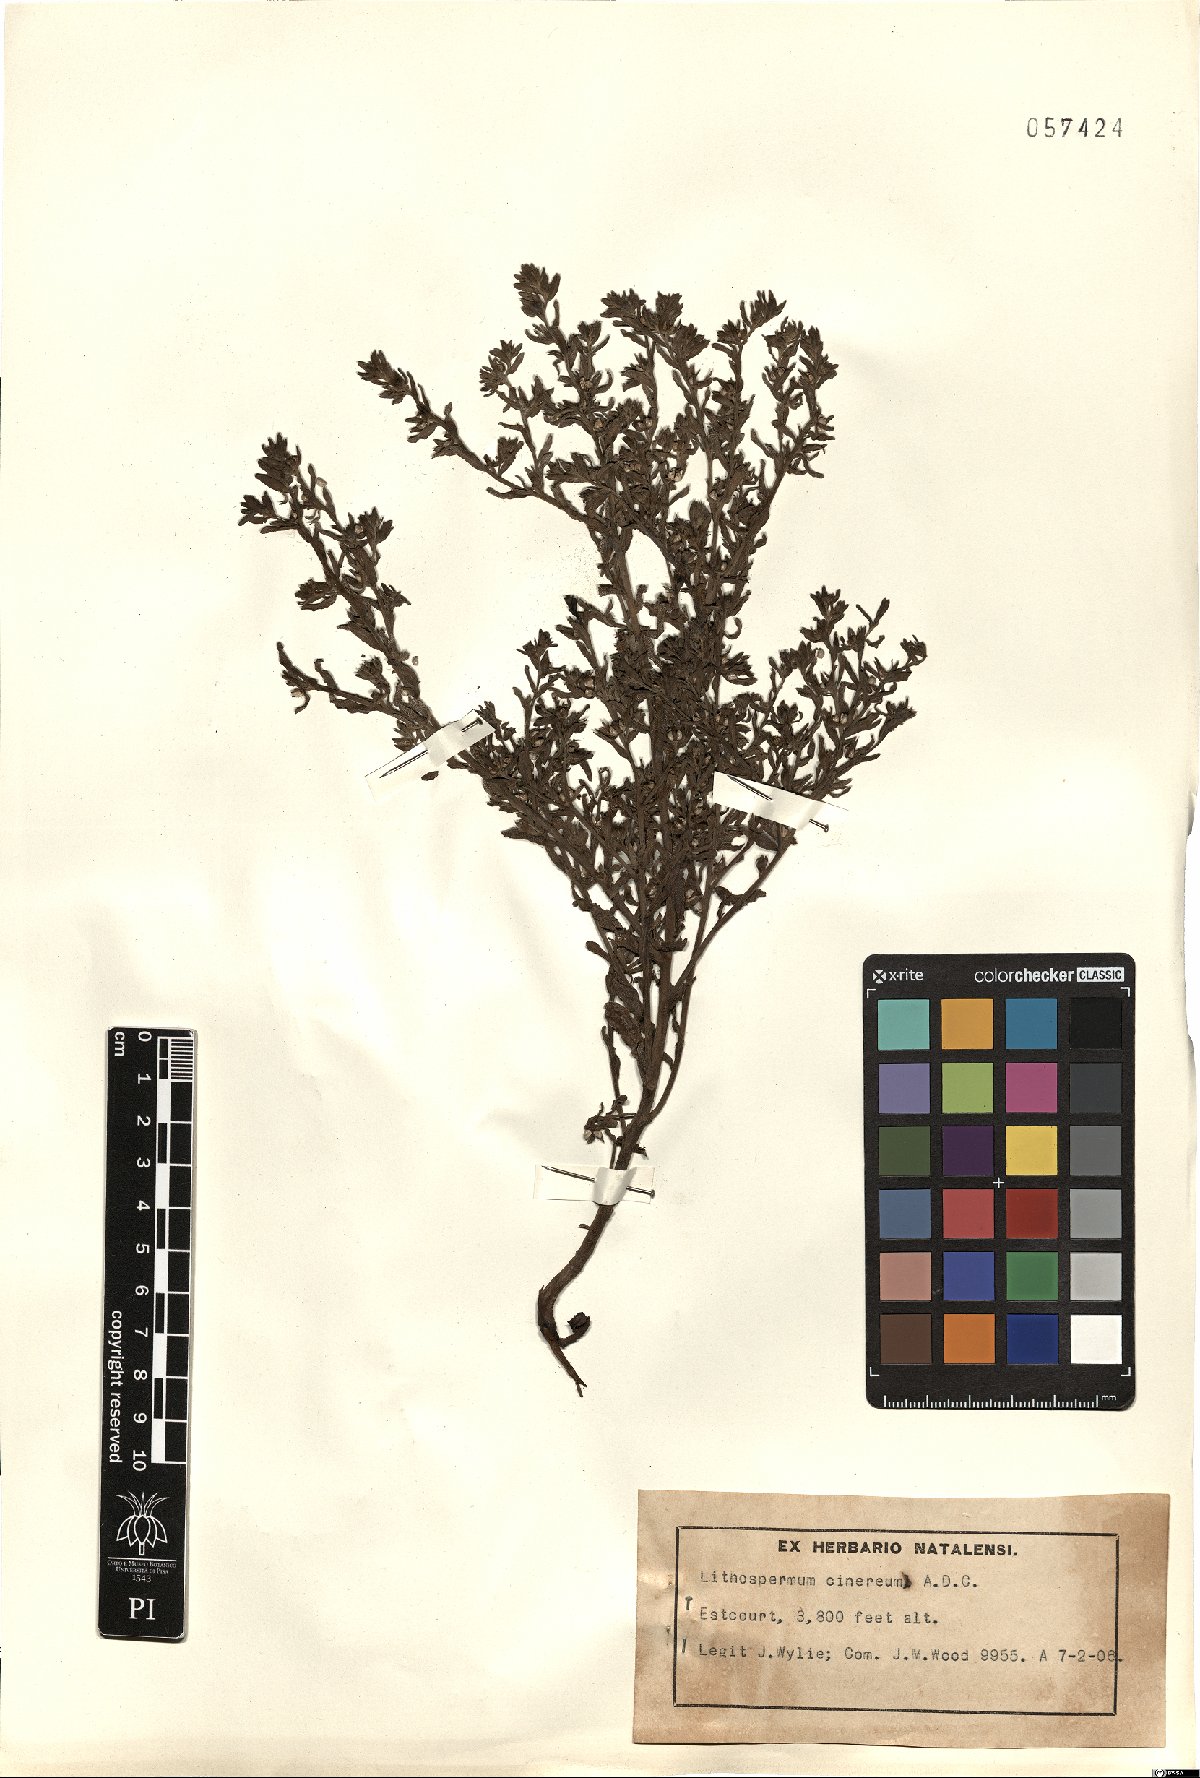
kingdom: Plantae
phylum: Tracheophyta
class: Magnoliopsida
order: Boraginales
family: Boraginaceae
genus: Lithospermum
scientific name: Lithospermum cinereum
